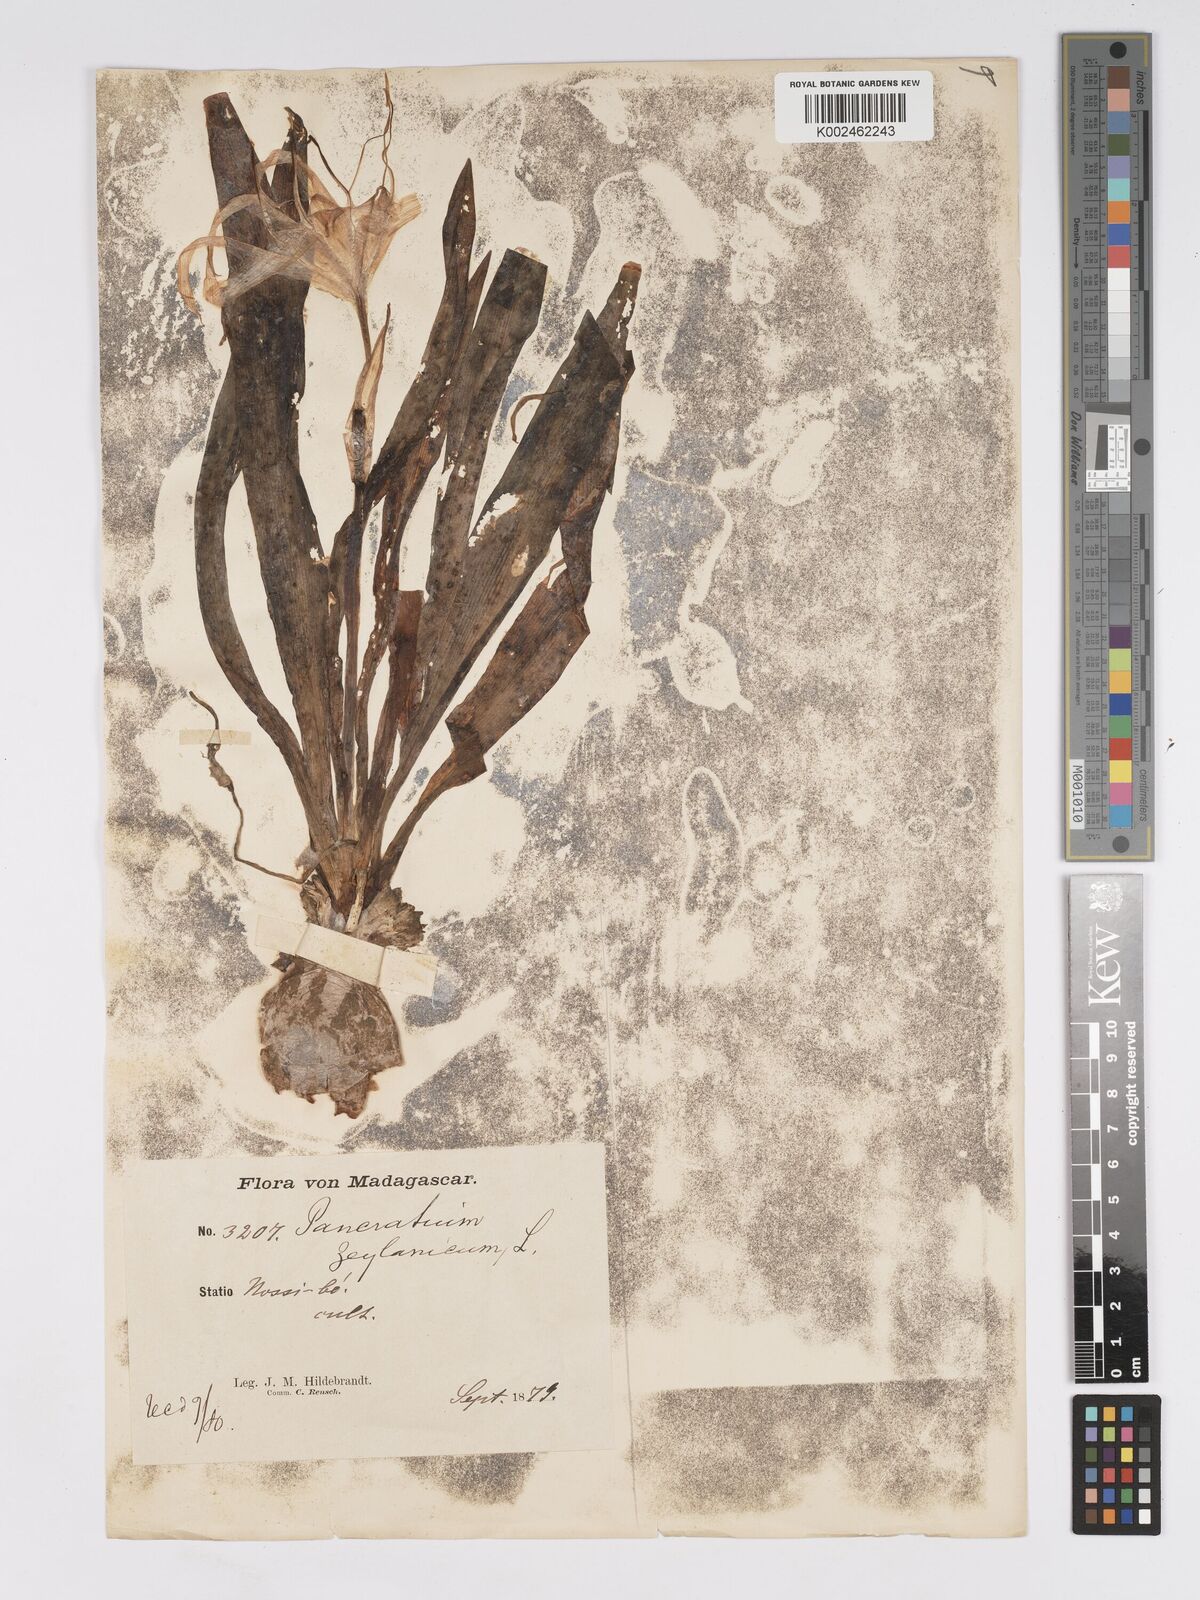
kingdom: Plantae
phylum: Tracheophyta
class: Liliopsida
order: Asparagales
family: Amaryllidaceae
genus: Pancratium
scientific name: Pancratium zeylanicum
